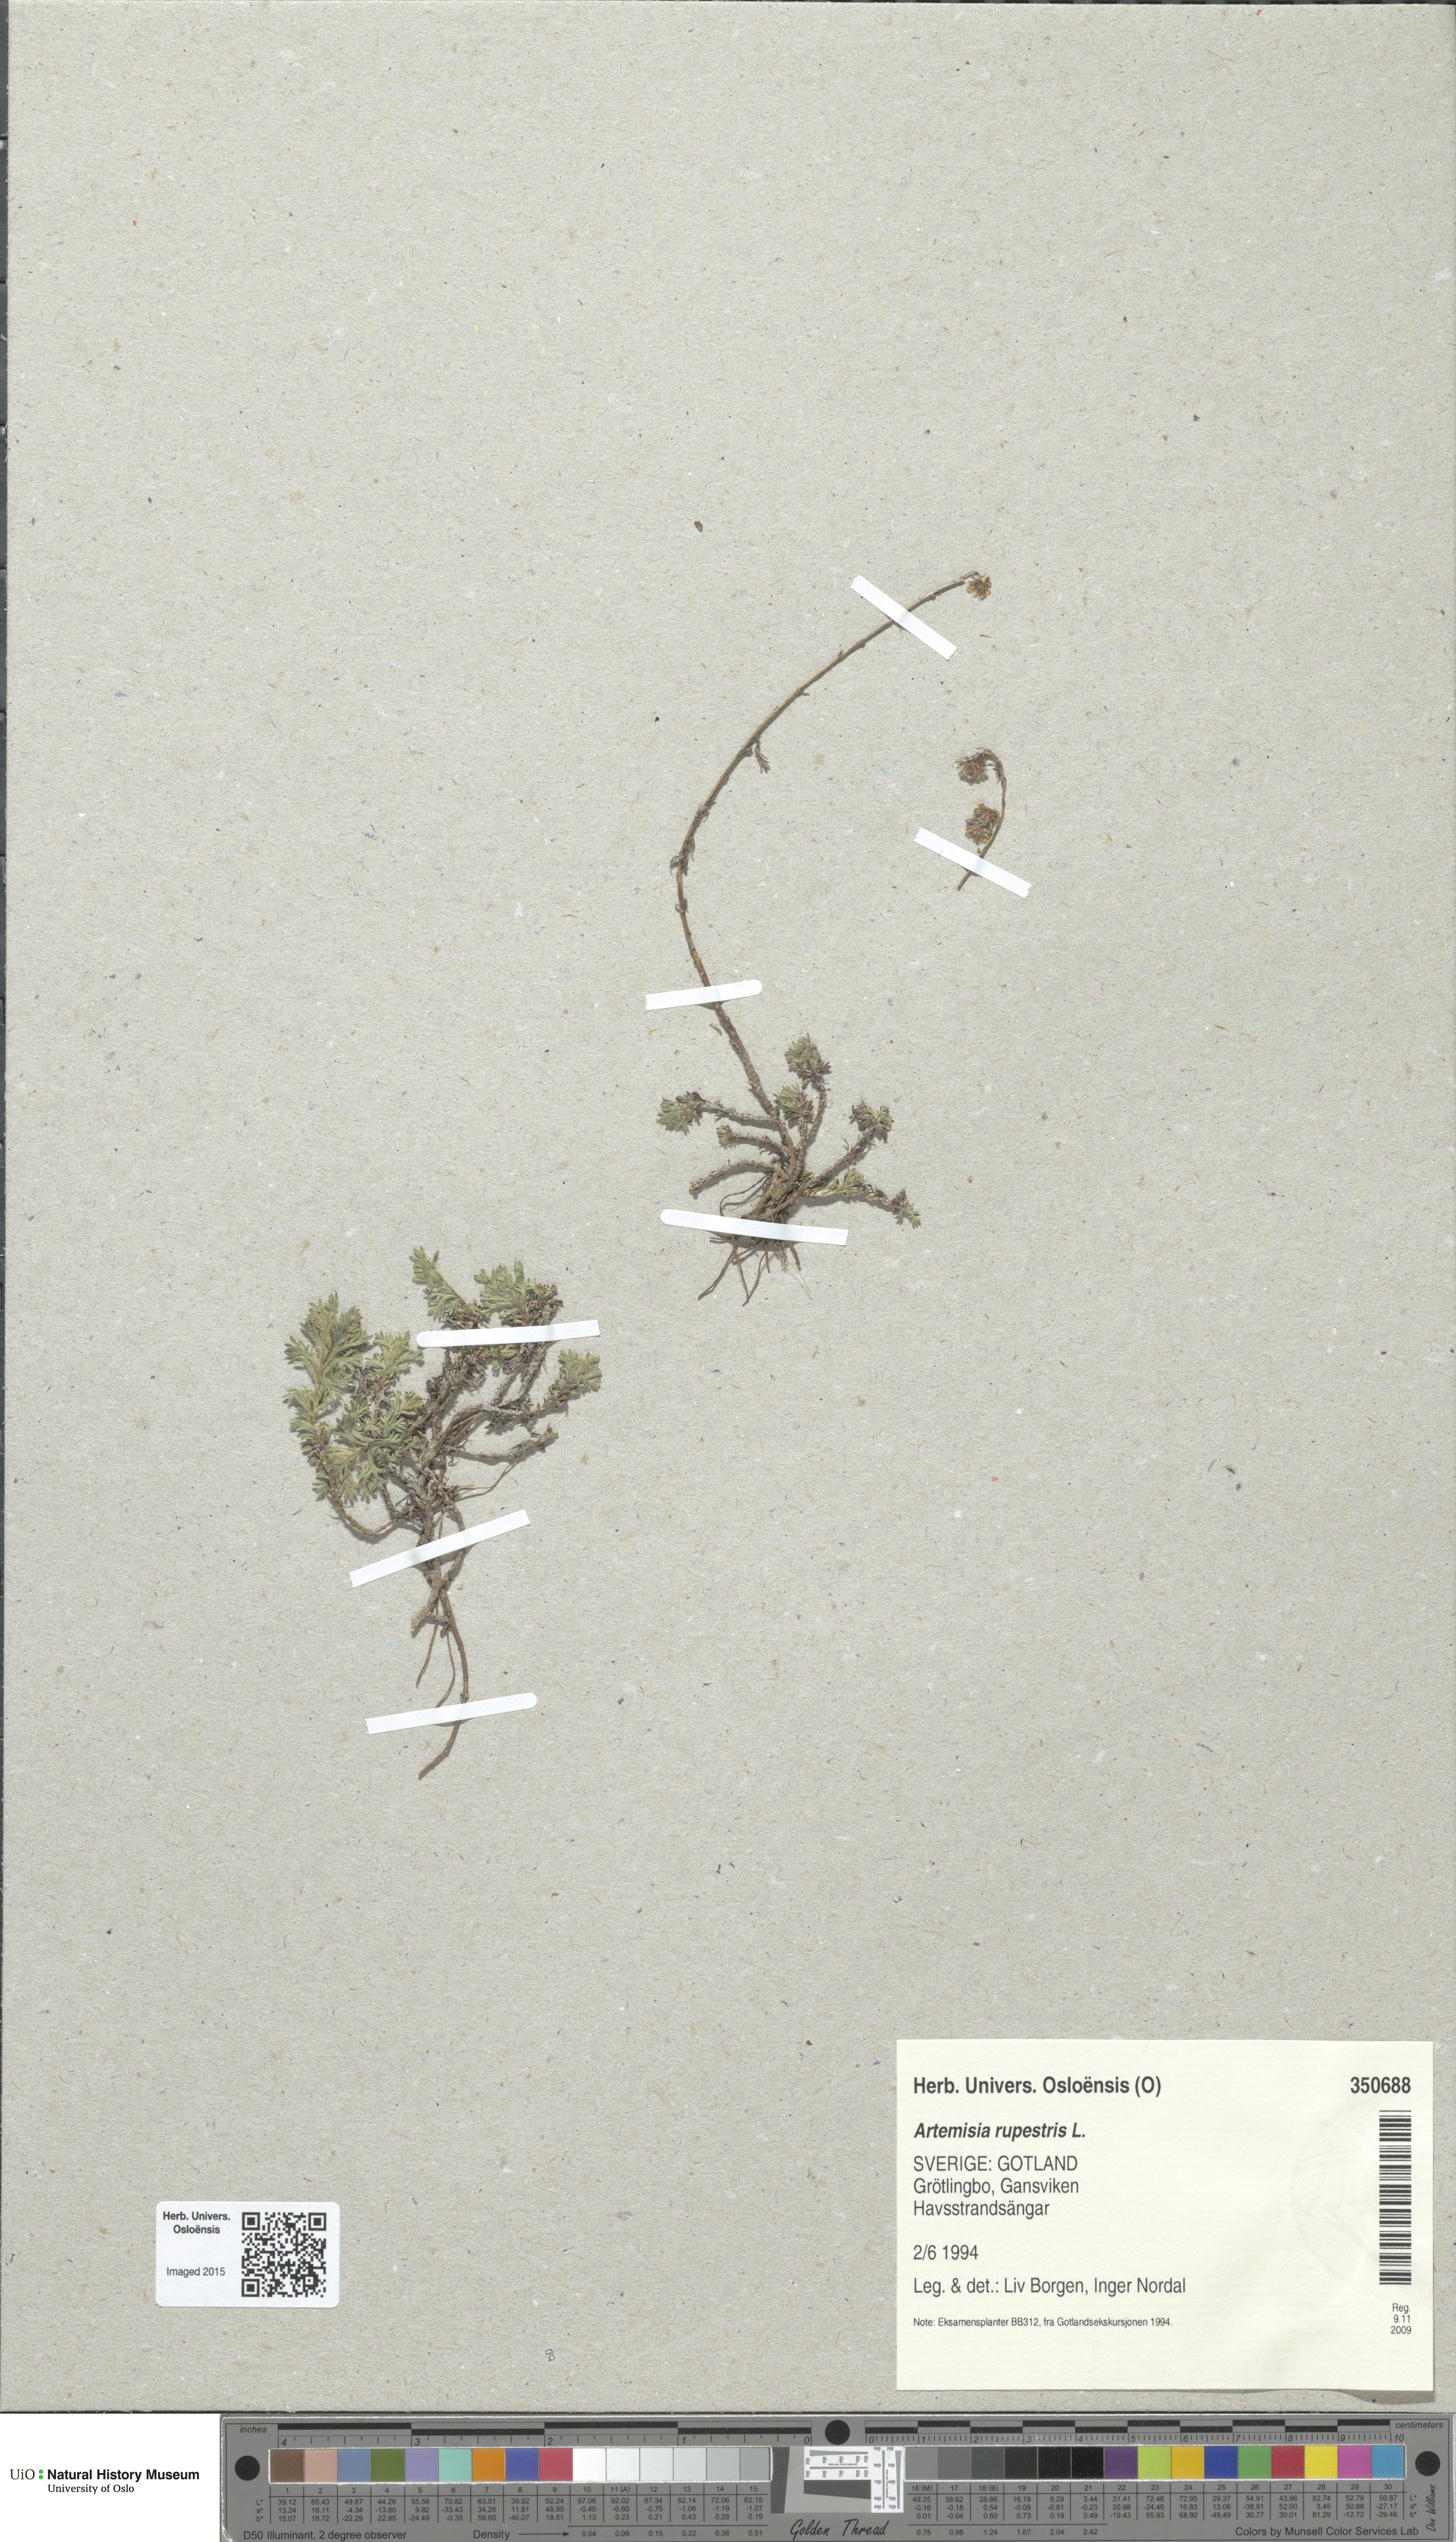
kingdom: Plantae
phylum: Tracheophyta
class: Magnoliopsida
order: Asterales
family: Asteraceae
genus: Artemisia
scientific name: Artemisia rupestris
